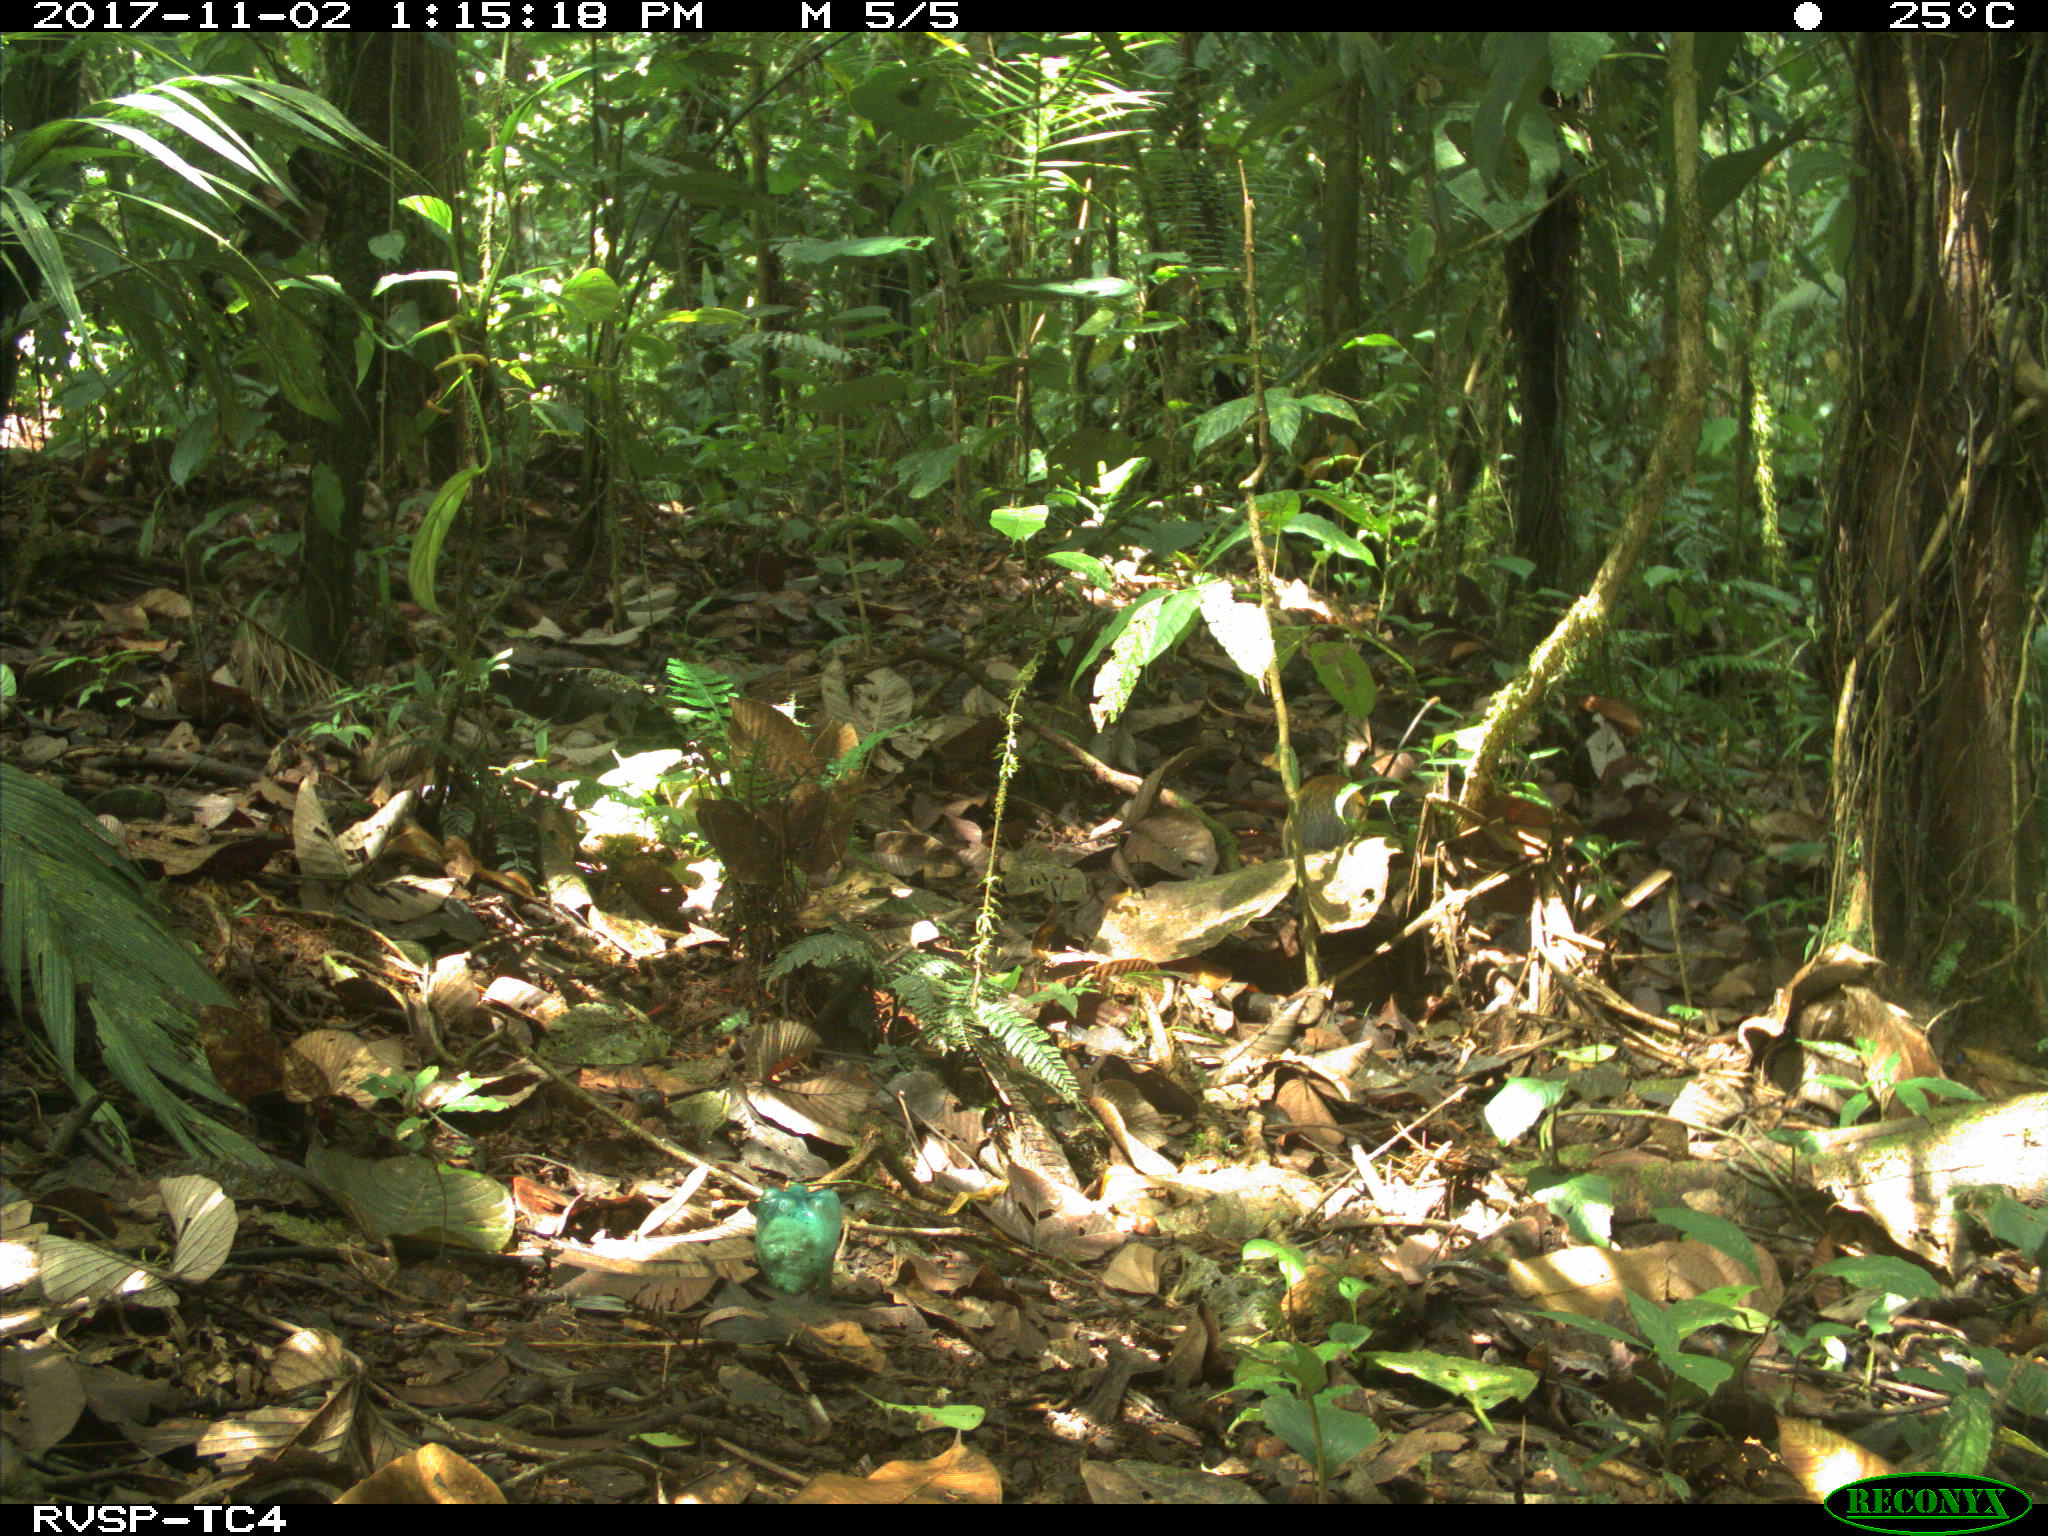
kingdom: Animalia
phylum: Chordata
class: Mammalia
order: Rodentia
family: Dasyproctidae
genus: Dasyprocta
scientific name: Dasyprocta punctata
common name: Central american agouti
